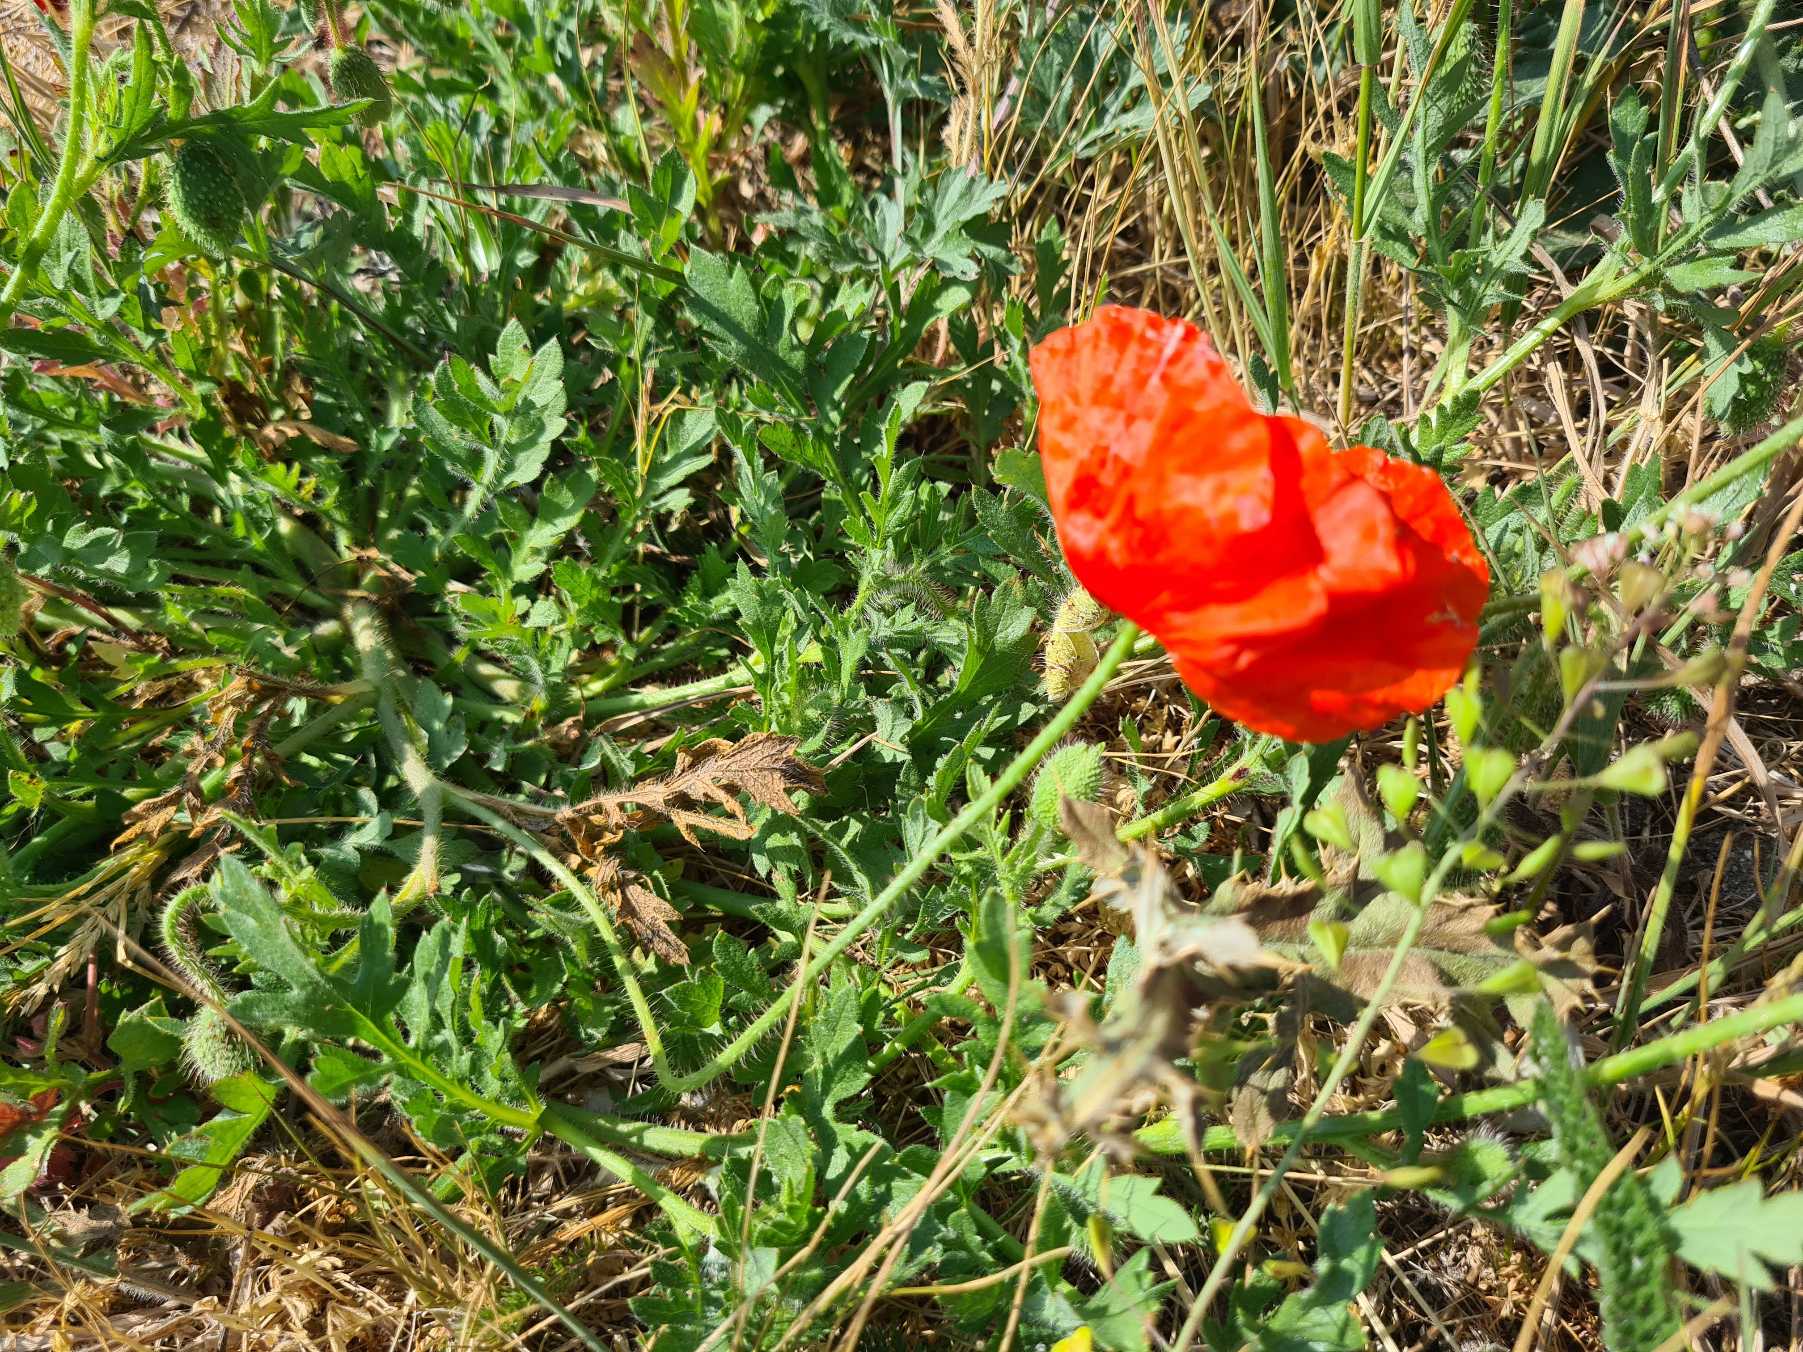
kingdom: Plantae
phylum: Tracheophyta
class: Magnoliopsida
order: Ranunculales
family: Papaveraceae
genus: Papaver
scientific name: Papaver rhoeas
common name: Korn-valmue
